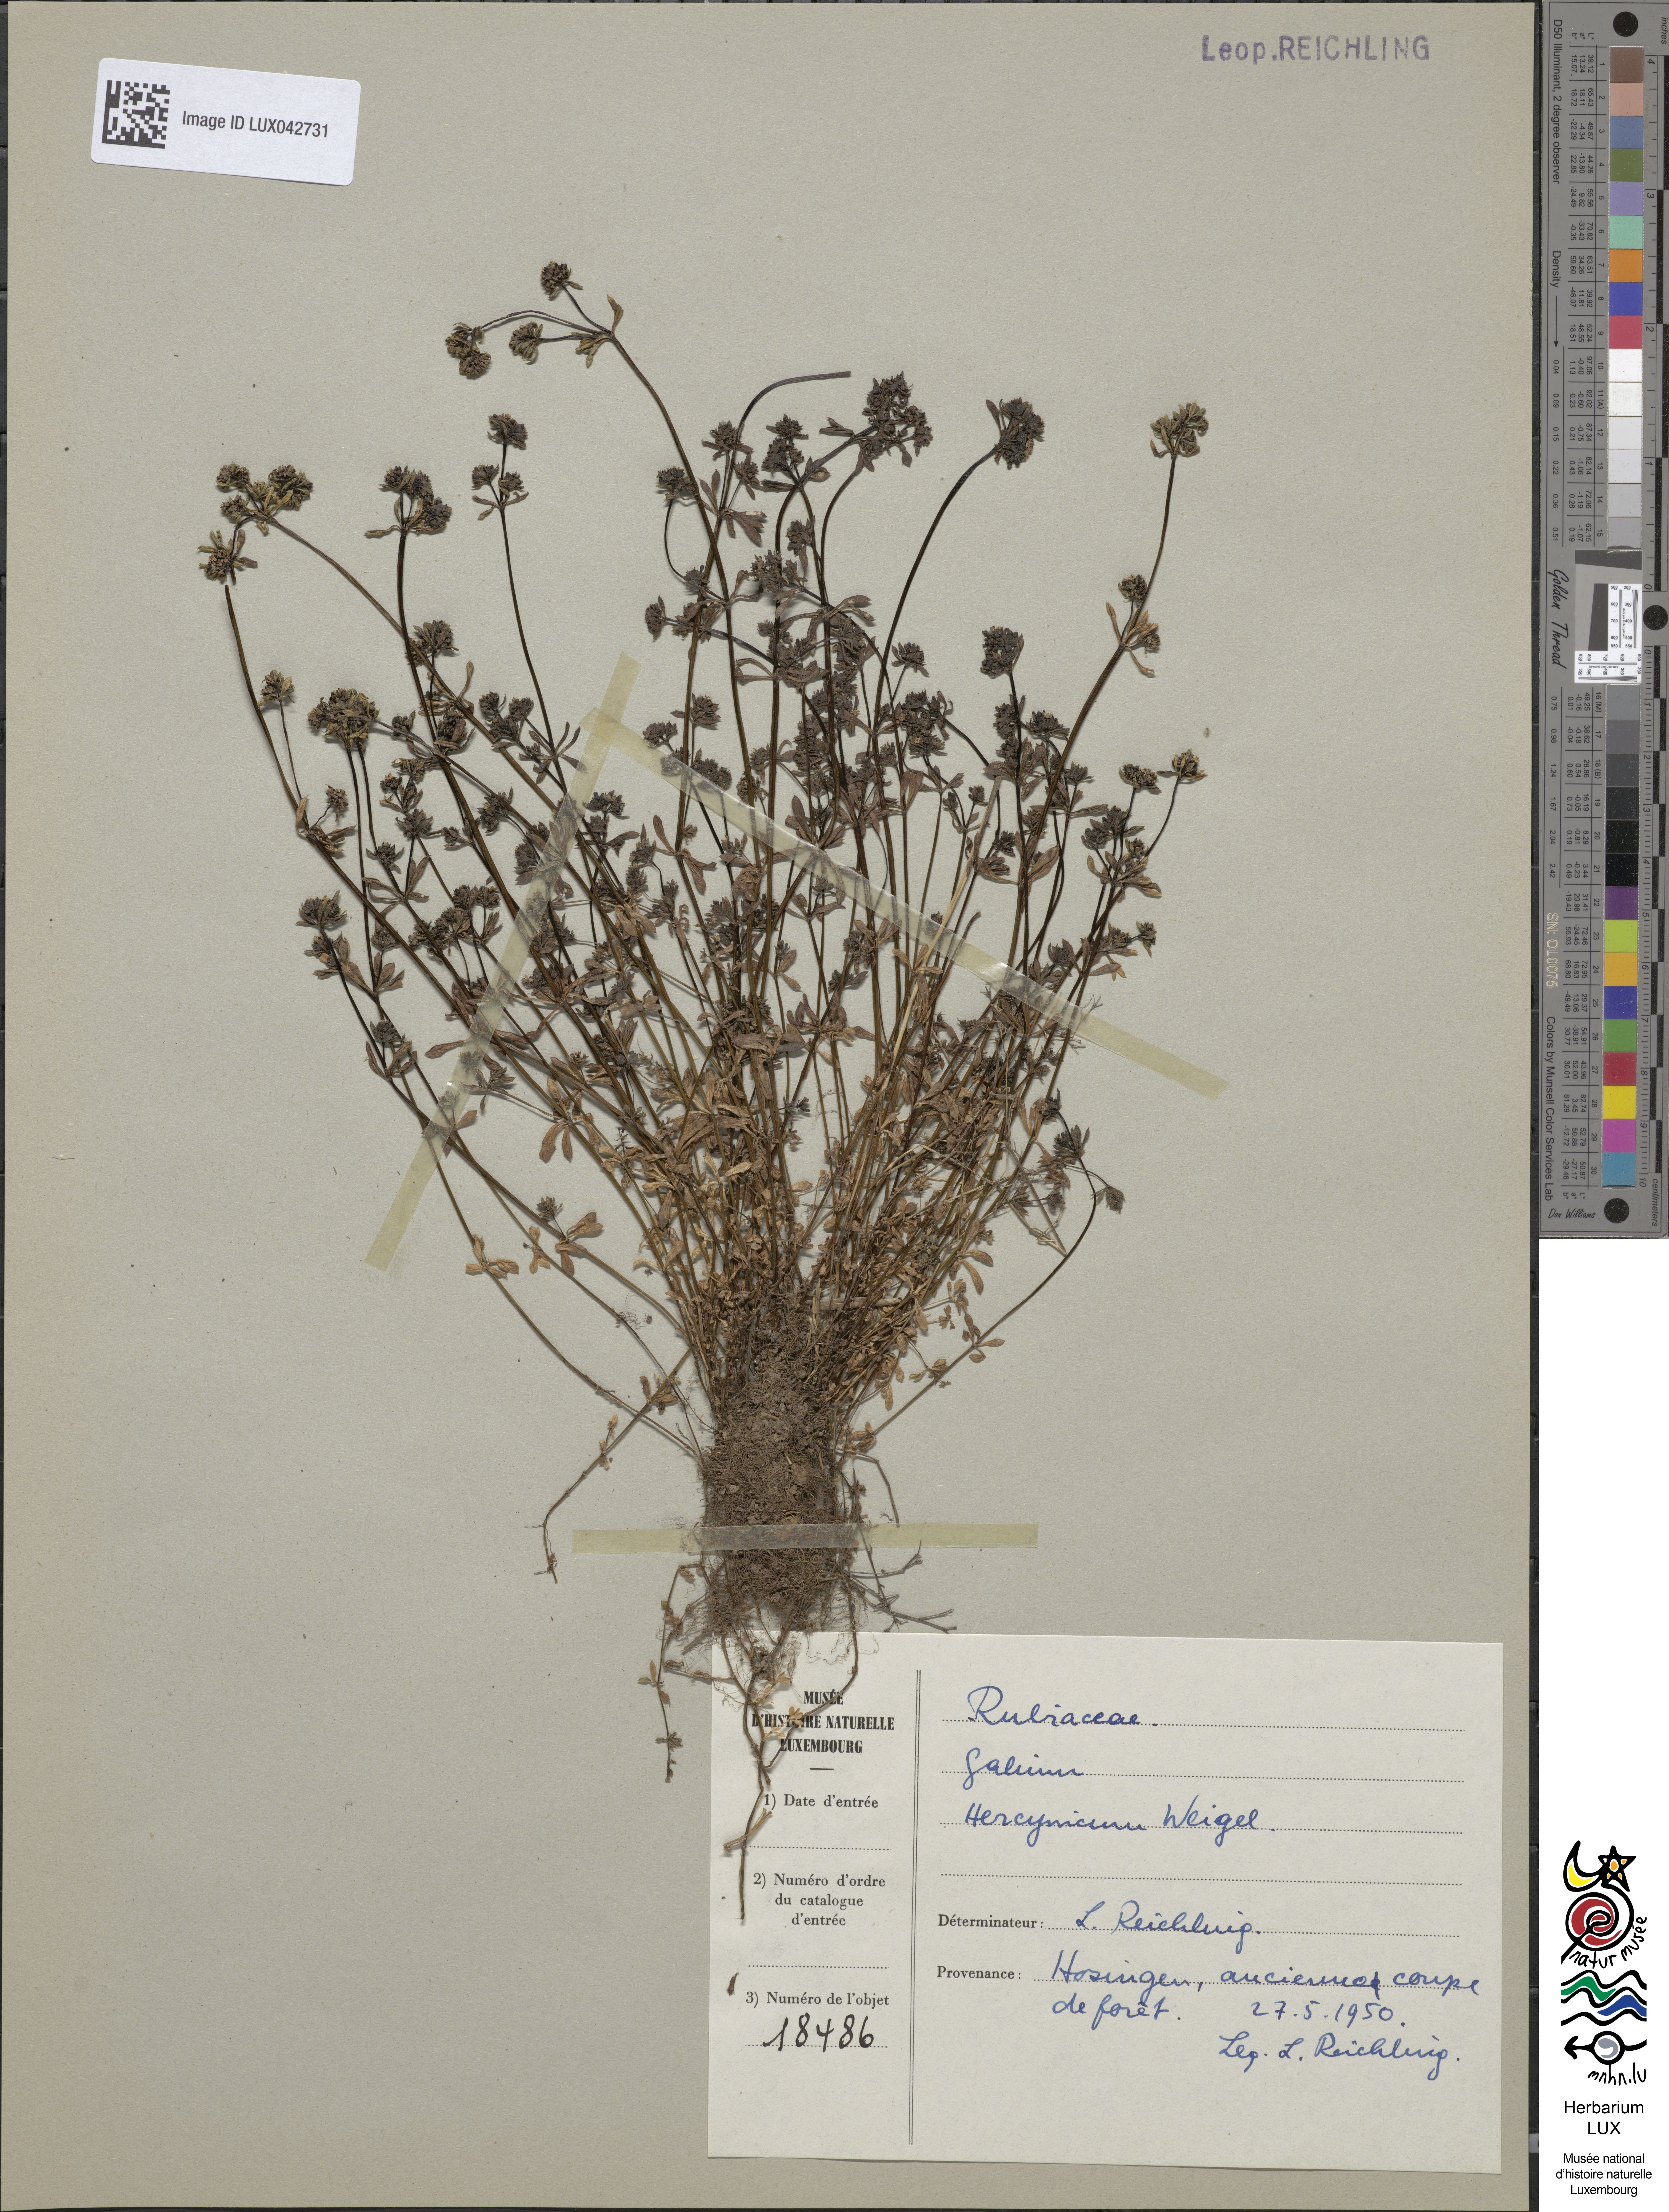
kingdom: Plantae
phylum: Tracheophyta
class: Magnoliopsida
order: Gentianales
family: Rubiaceae
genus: Galium
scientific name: Galium saxatile
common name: Heath bedstraw
